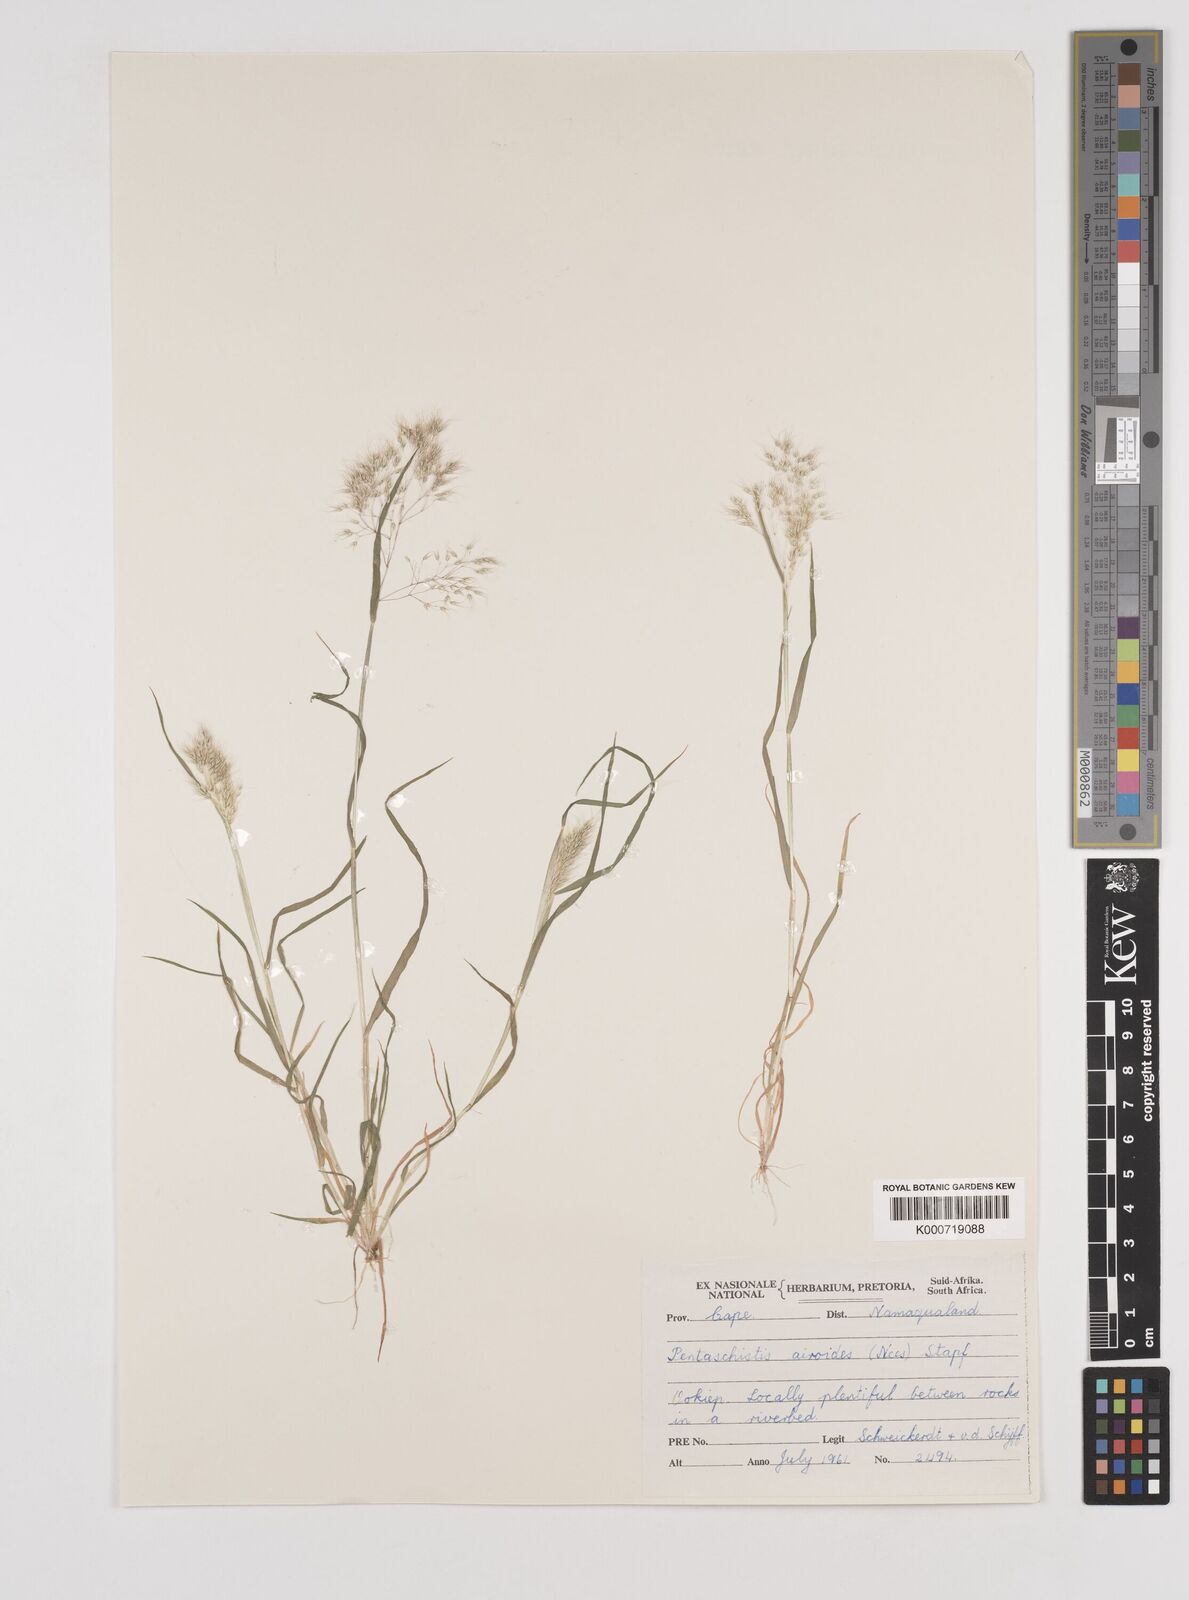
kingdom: Plantae
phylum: Tracheophyta
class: Liliopsida
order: Poales
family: Poaceae
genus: Pentameris
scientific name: Pentameris airoides
